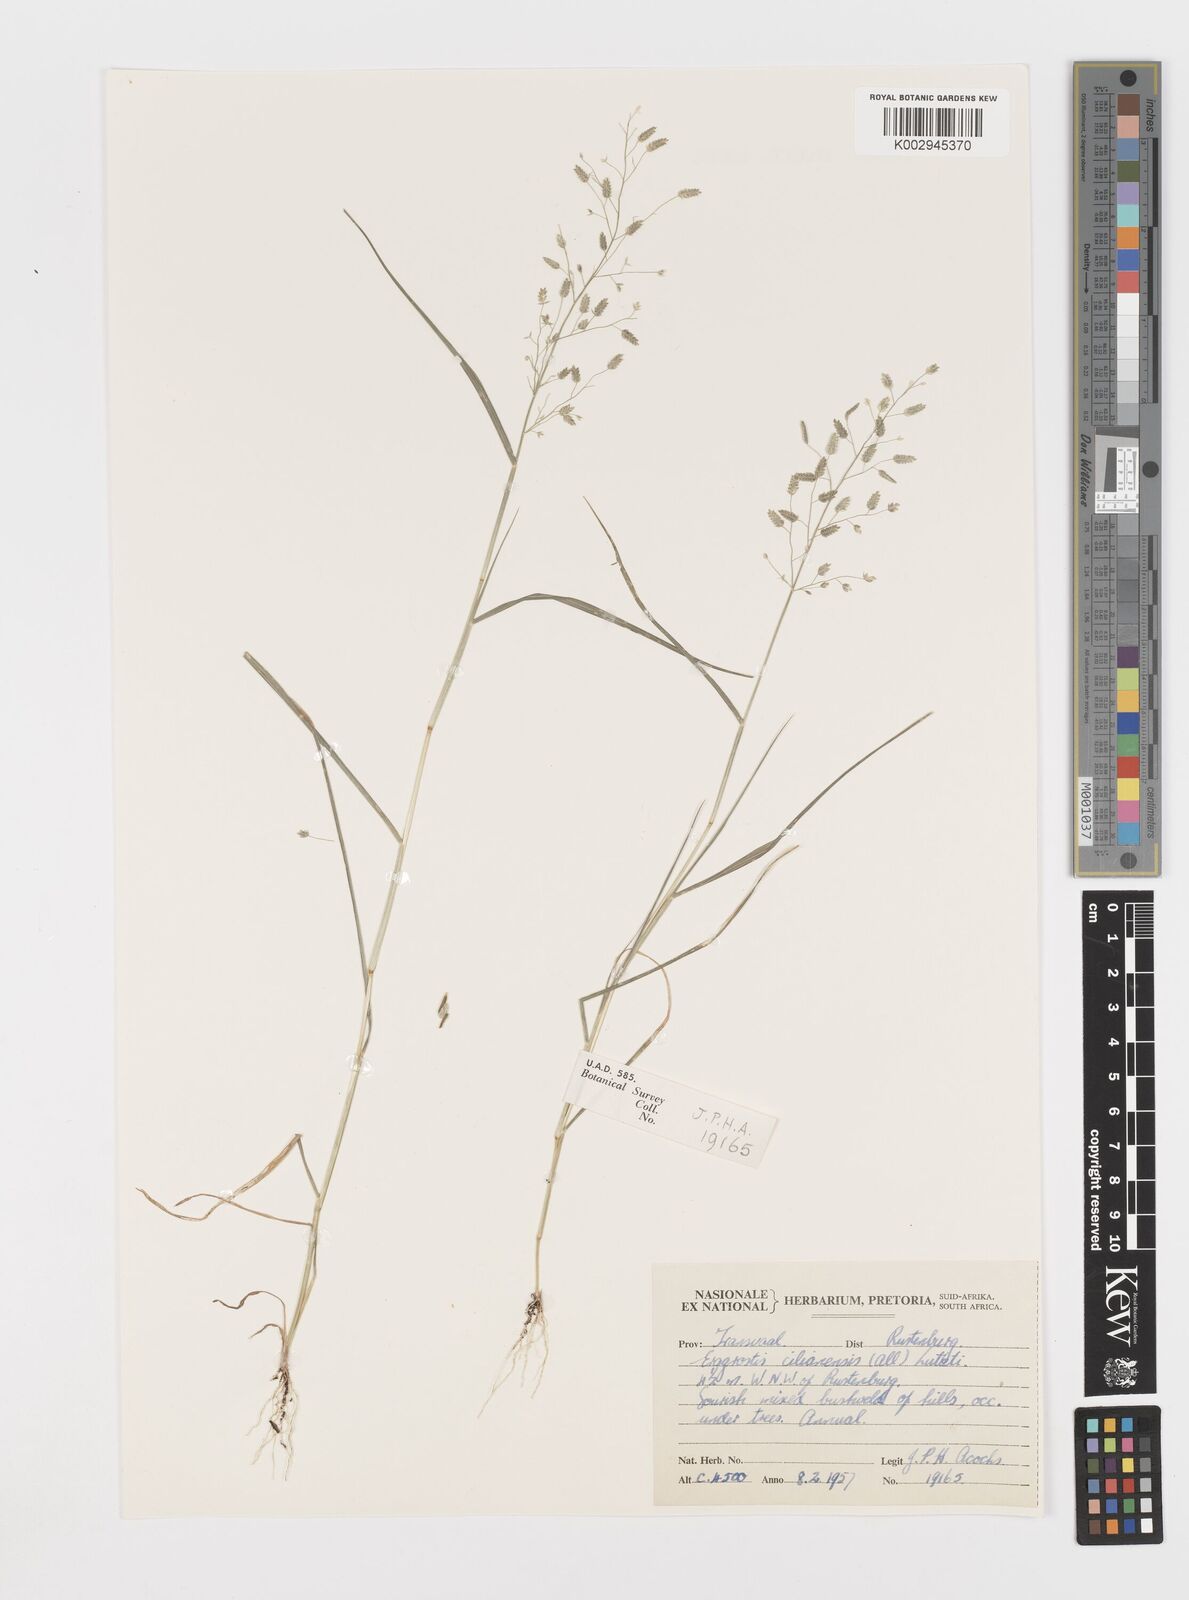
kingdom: Plantae
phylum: Tracheophyta
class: Liliopsida
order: Poales
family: Poaceae
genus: Eragrostis
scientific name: Eragrostis cilianensis
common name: Stinkgrass
